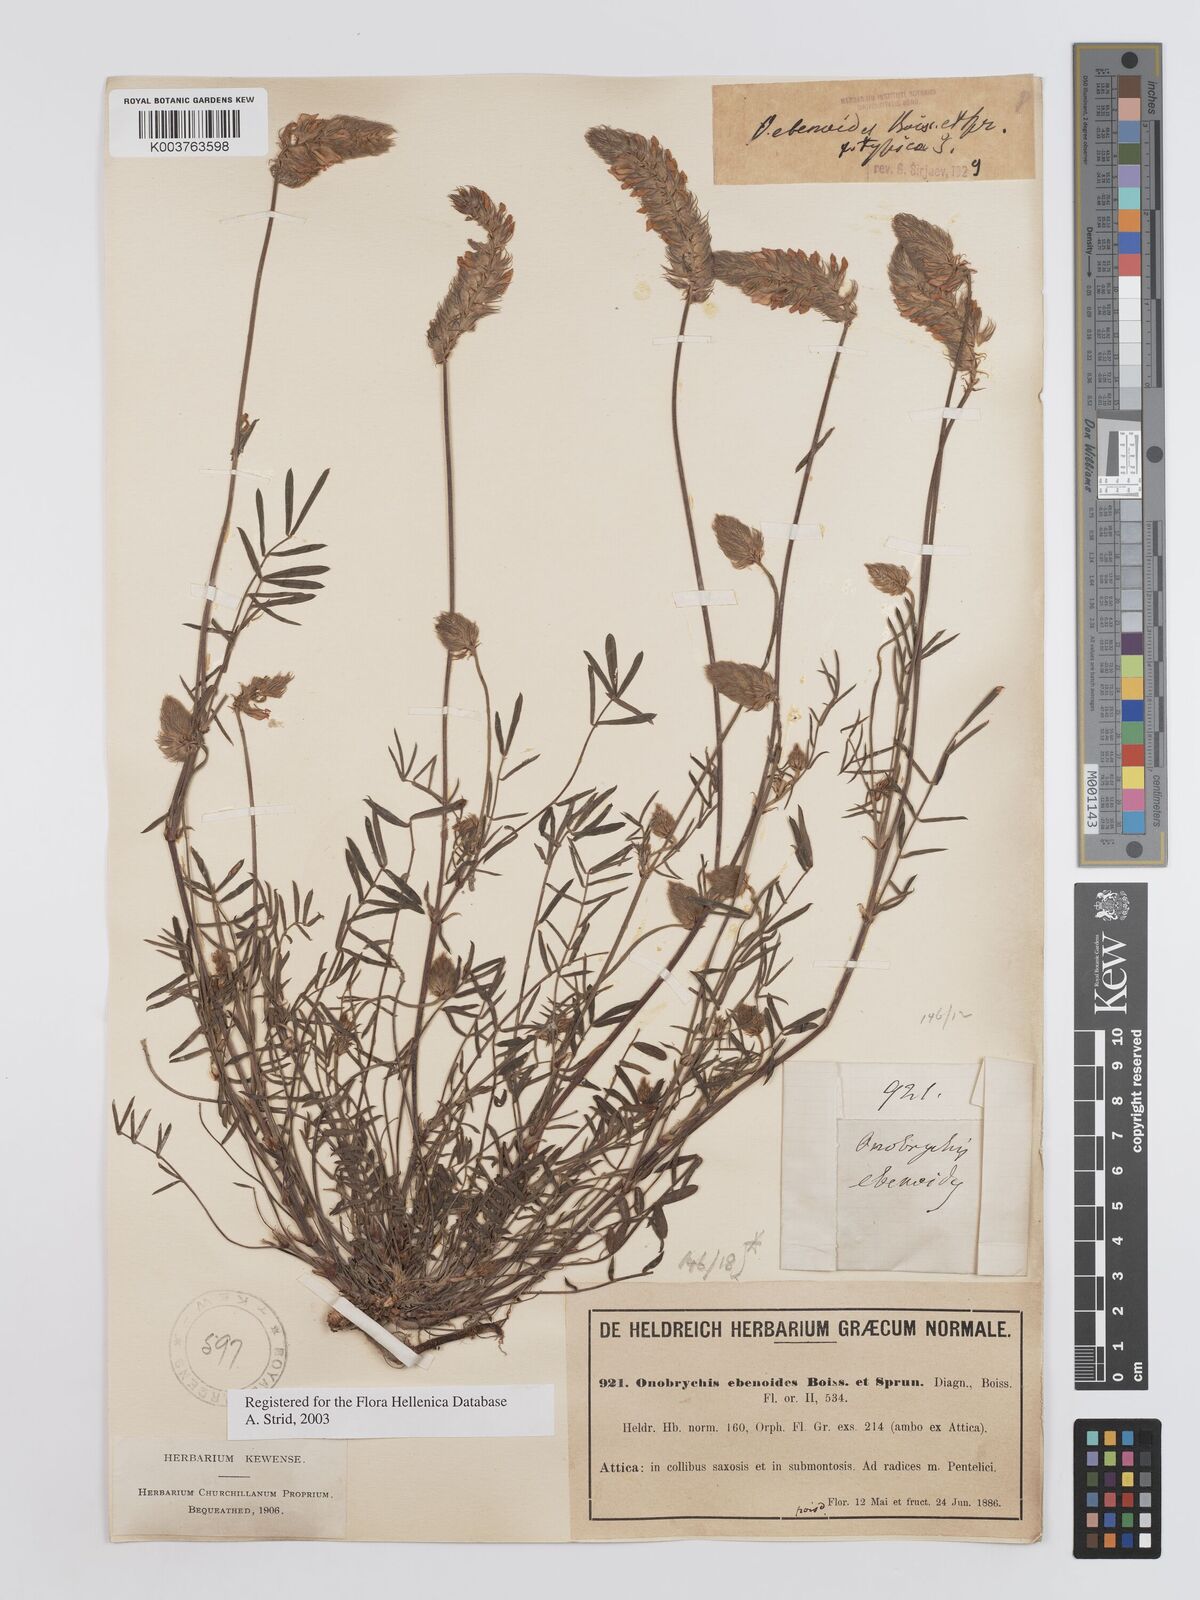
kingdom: Plantae
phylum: Tracheophyta
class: Magnoliopsida
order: Fabales
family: Fabaceae
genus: Onobrychis
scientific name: Onobrychis ebenoides
